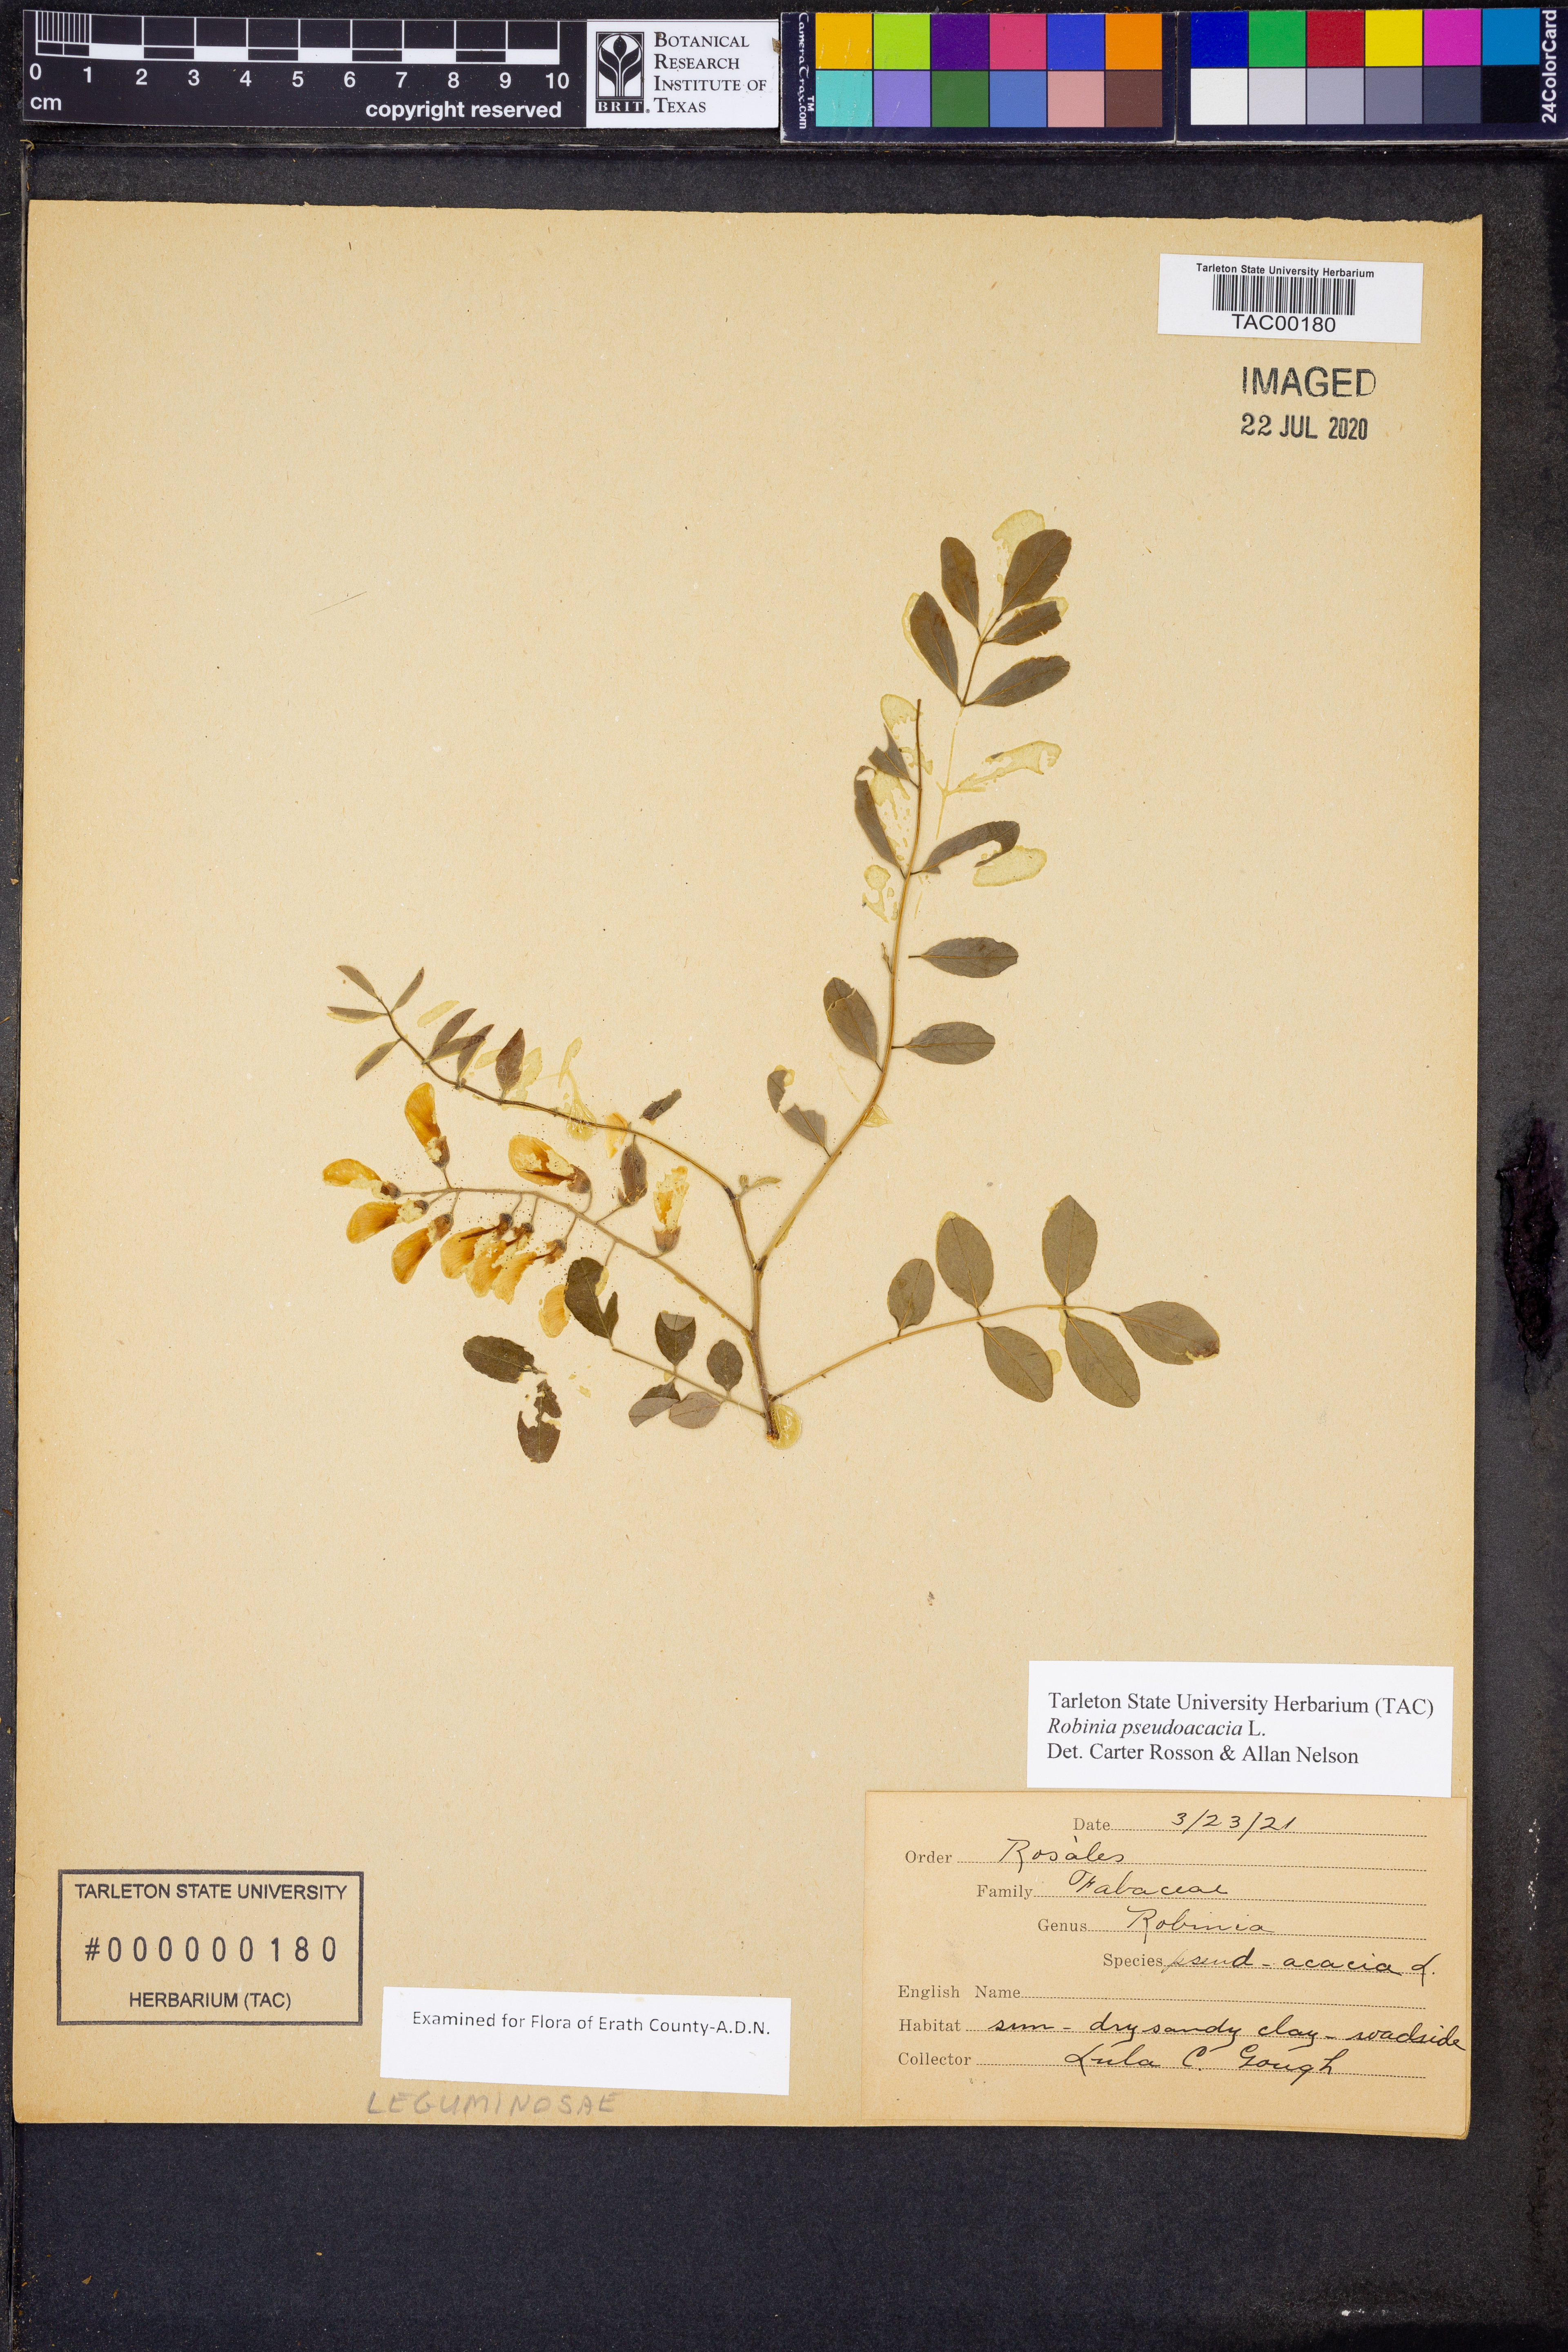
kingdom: Plantae
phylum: Tracheophyta
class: Magnoliopsida
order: Fabales
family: Fabaceae
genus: Robinia
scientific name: Robinia pseudoacacia
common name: Black locust
